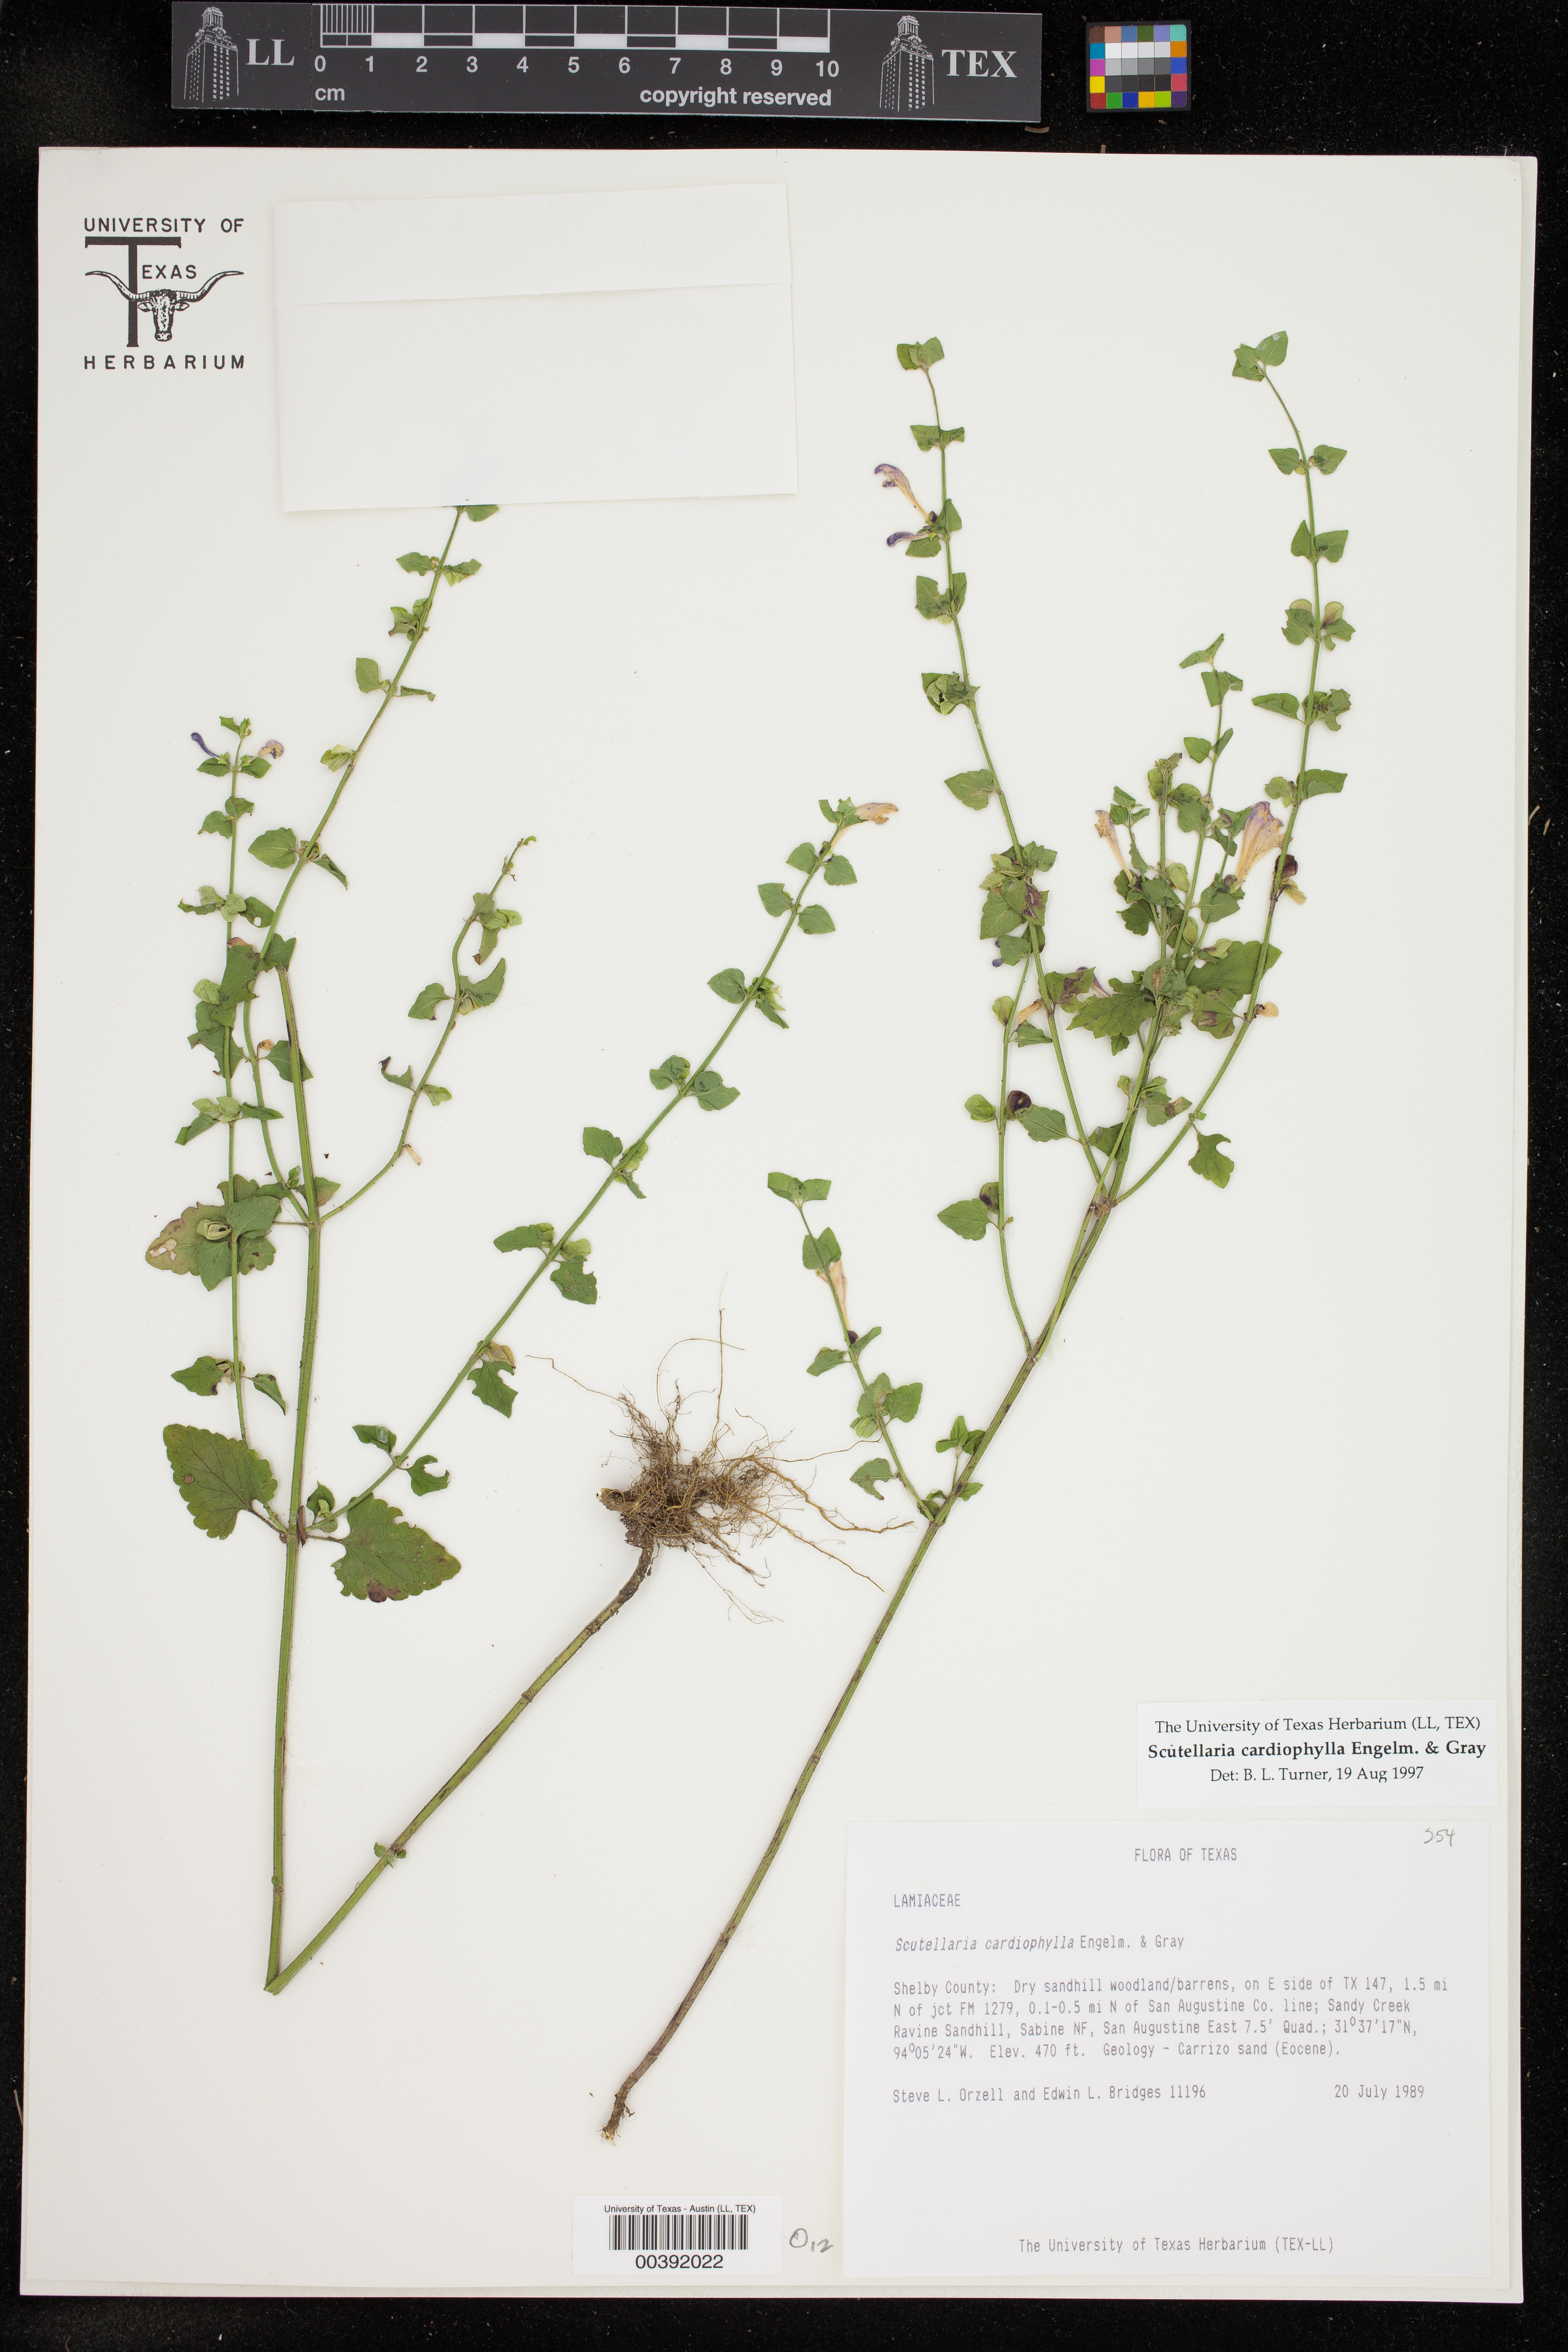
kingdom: Plantae
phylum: Tracheophyta
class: Magnoliopsida
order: Lamiales
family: Lamiaceae
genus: Scutellaria
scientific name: Scutellaria cardiophylla
